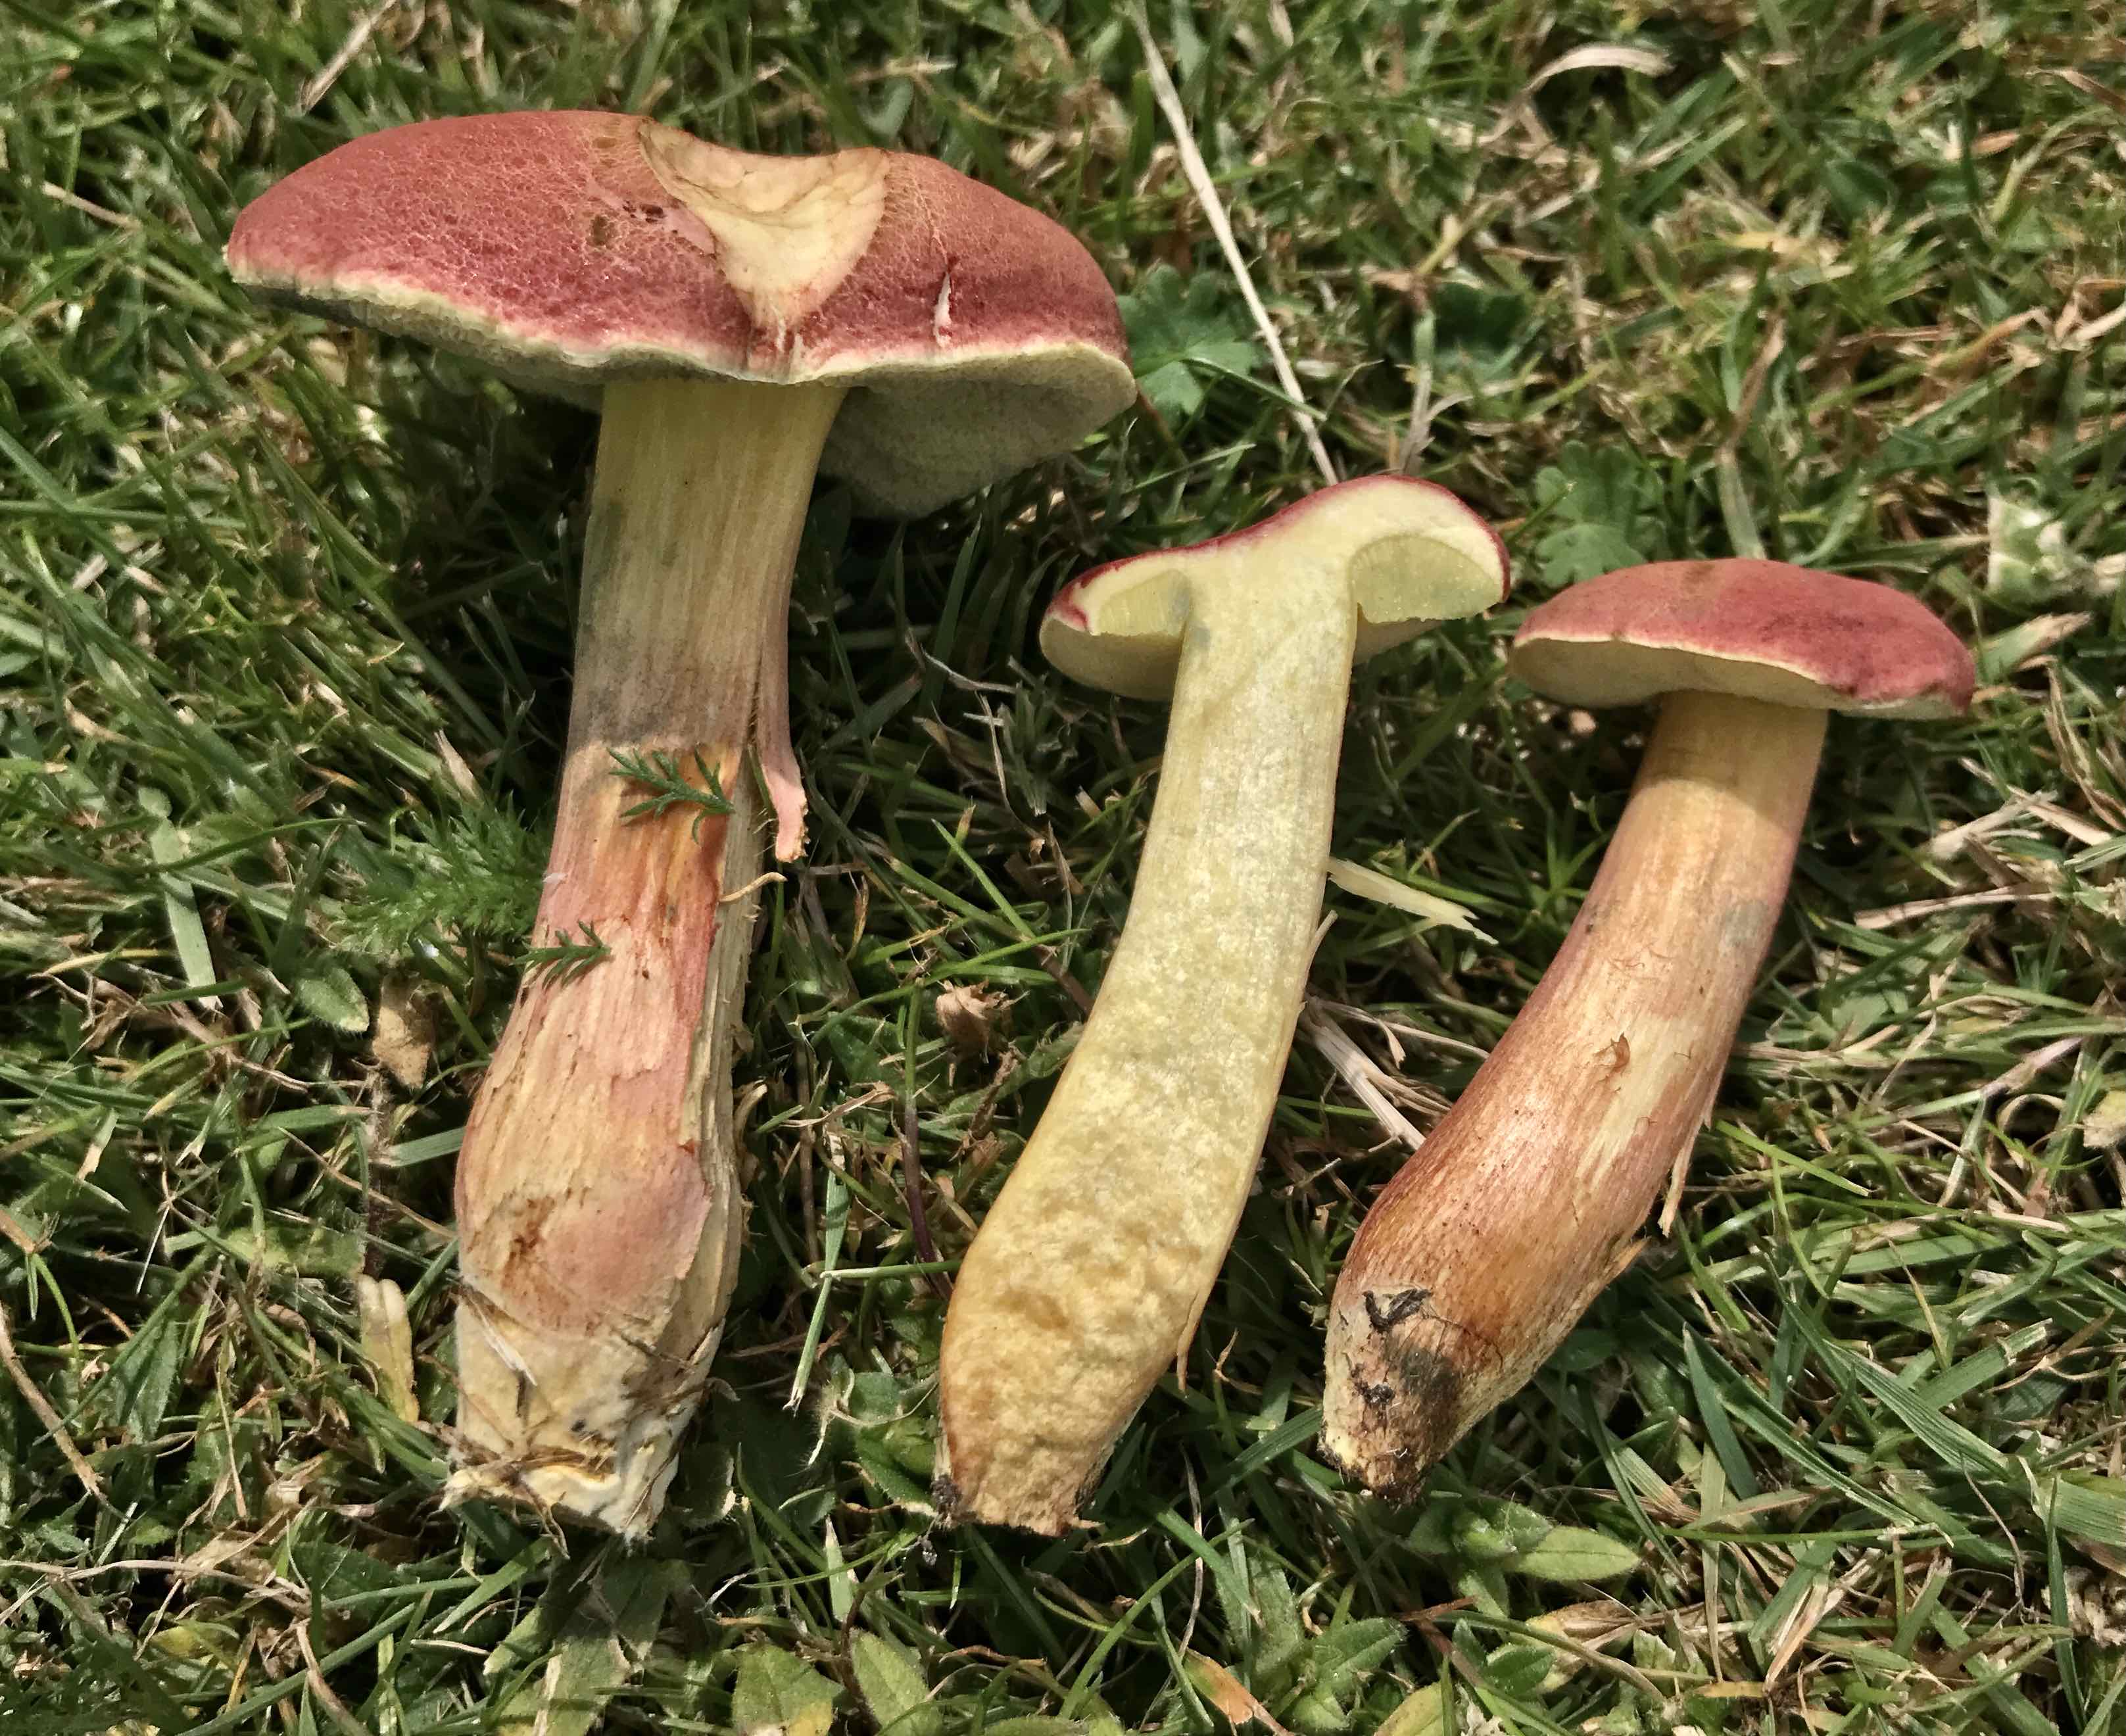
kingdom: Fungi
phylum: Basidiomycota
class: Agaricomycetes
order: Boletales
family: Boletaceae
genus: Hortiboletus
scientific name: Hortiboletus bubalinus
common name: aurora-rørhat
